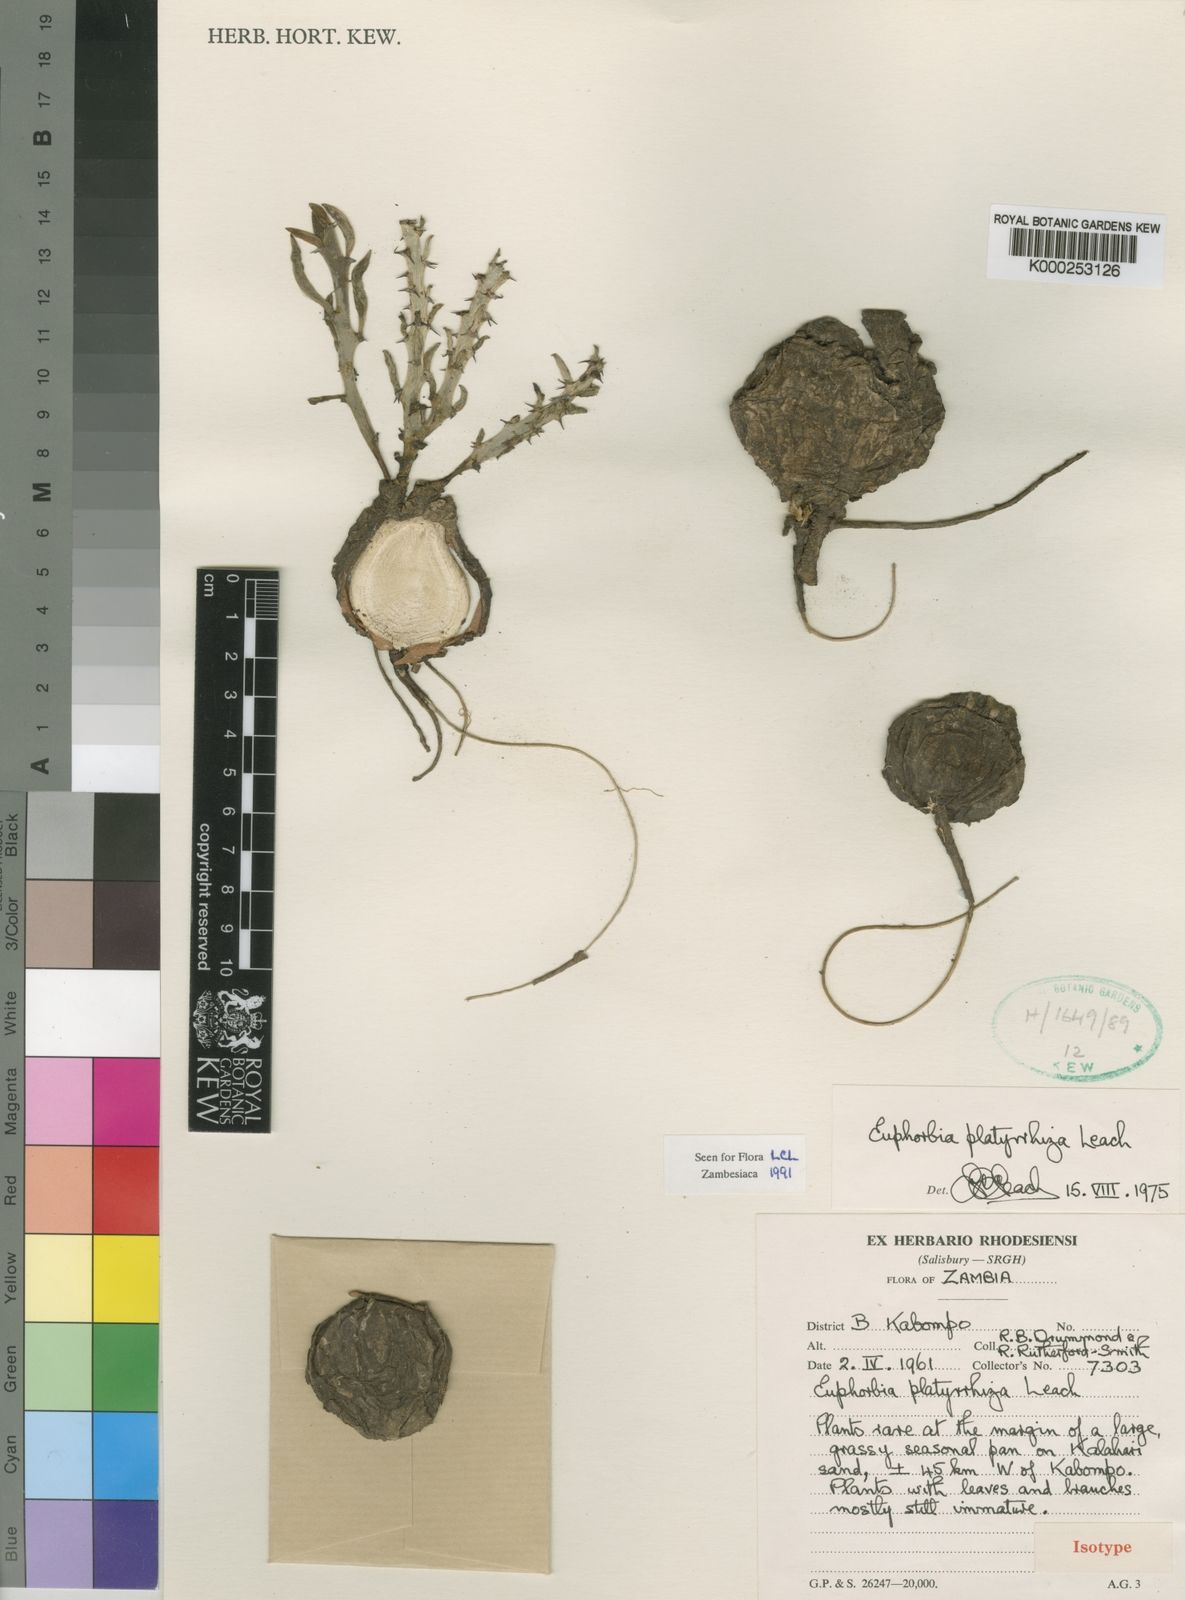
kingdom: Plantae
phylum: Tracheophyta
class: Magnoliopsida
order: Malpighiales
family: Euphorbiaceae
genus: Euphorbia
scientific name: Euphorbia platyrrhiza
